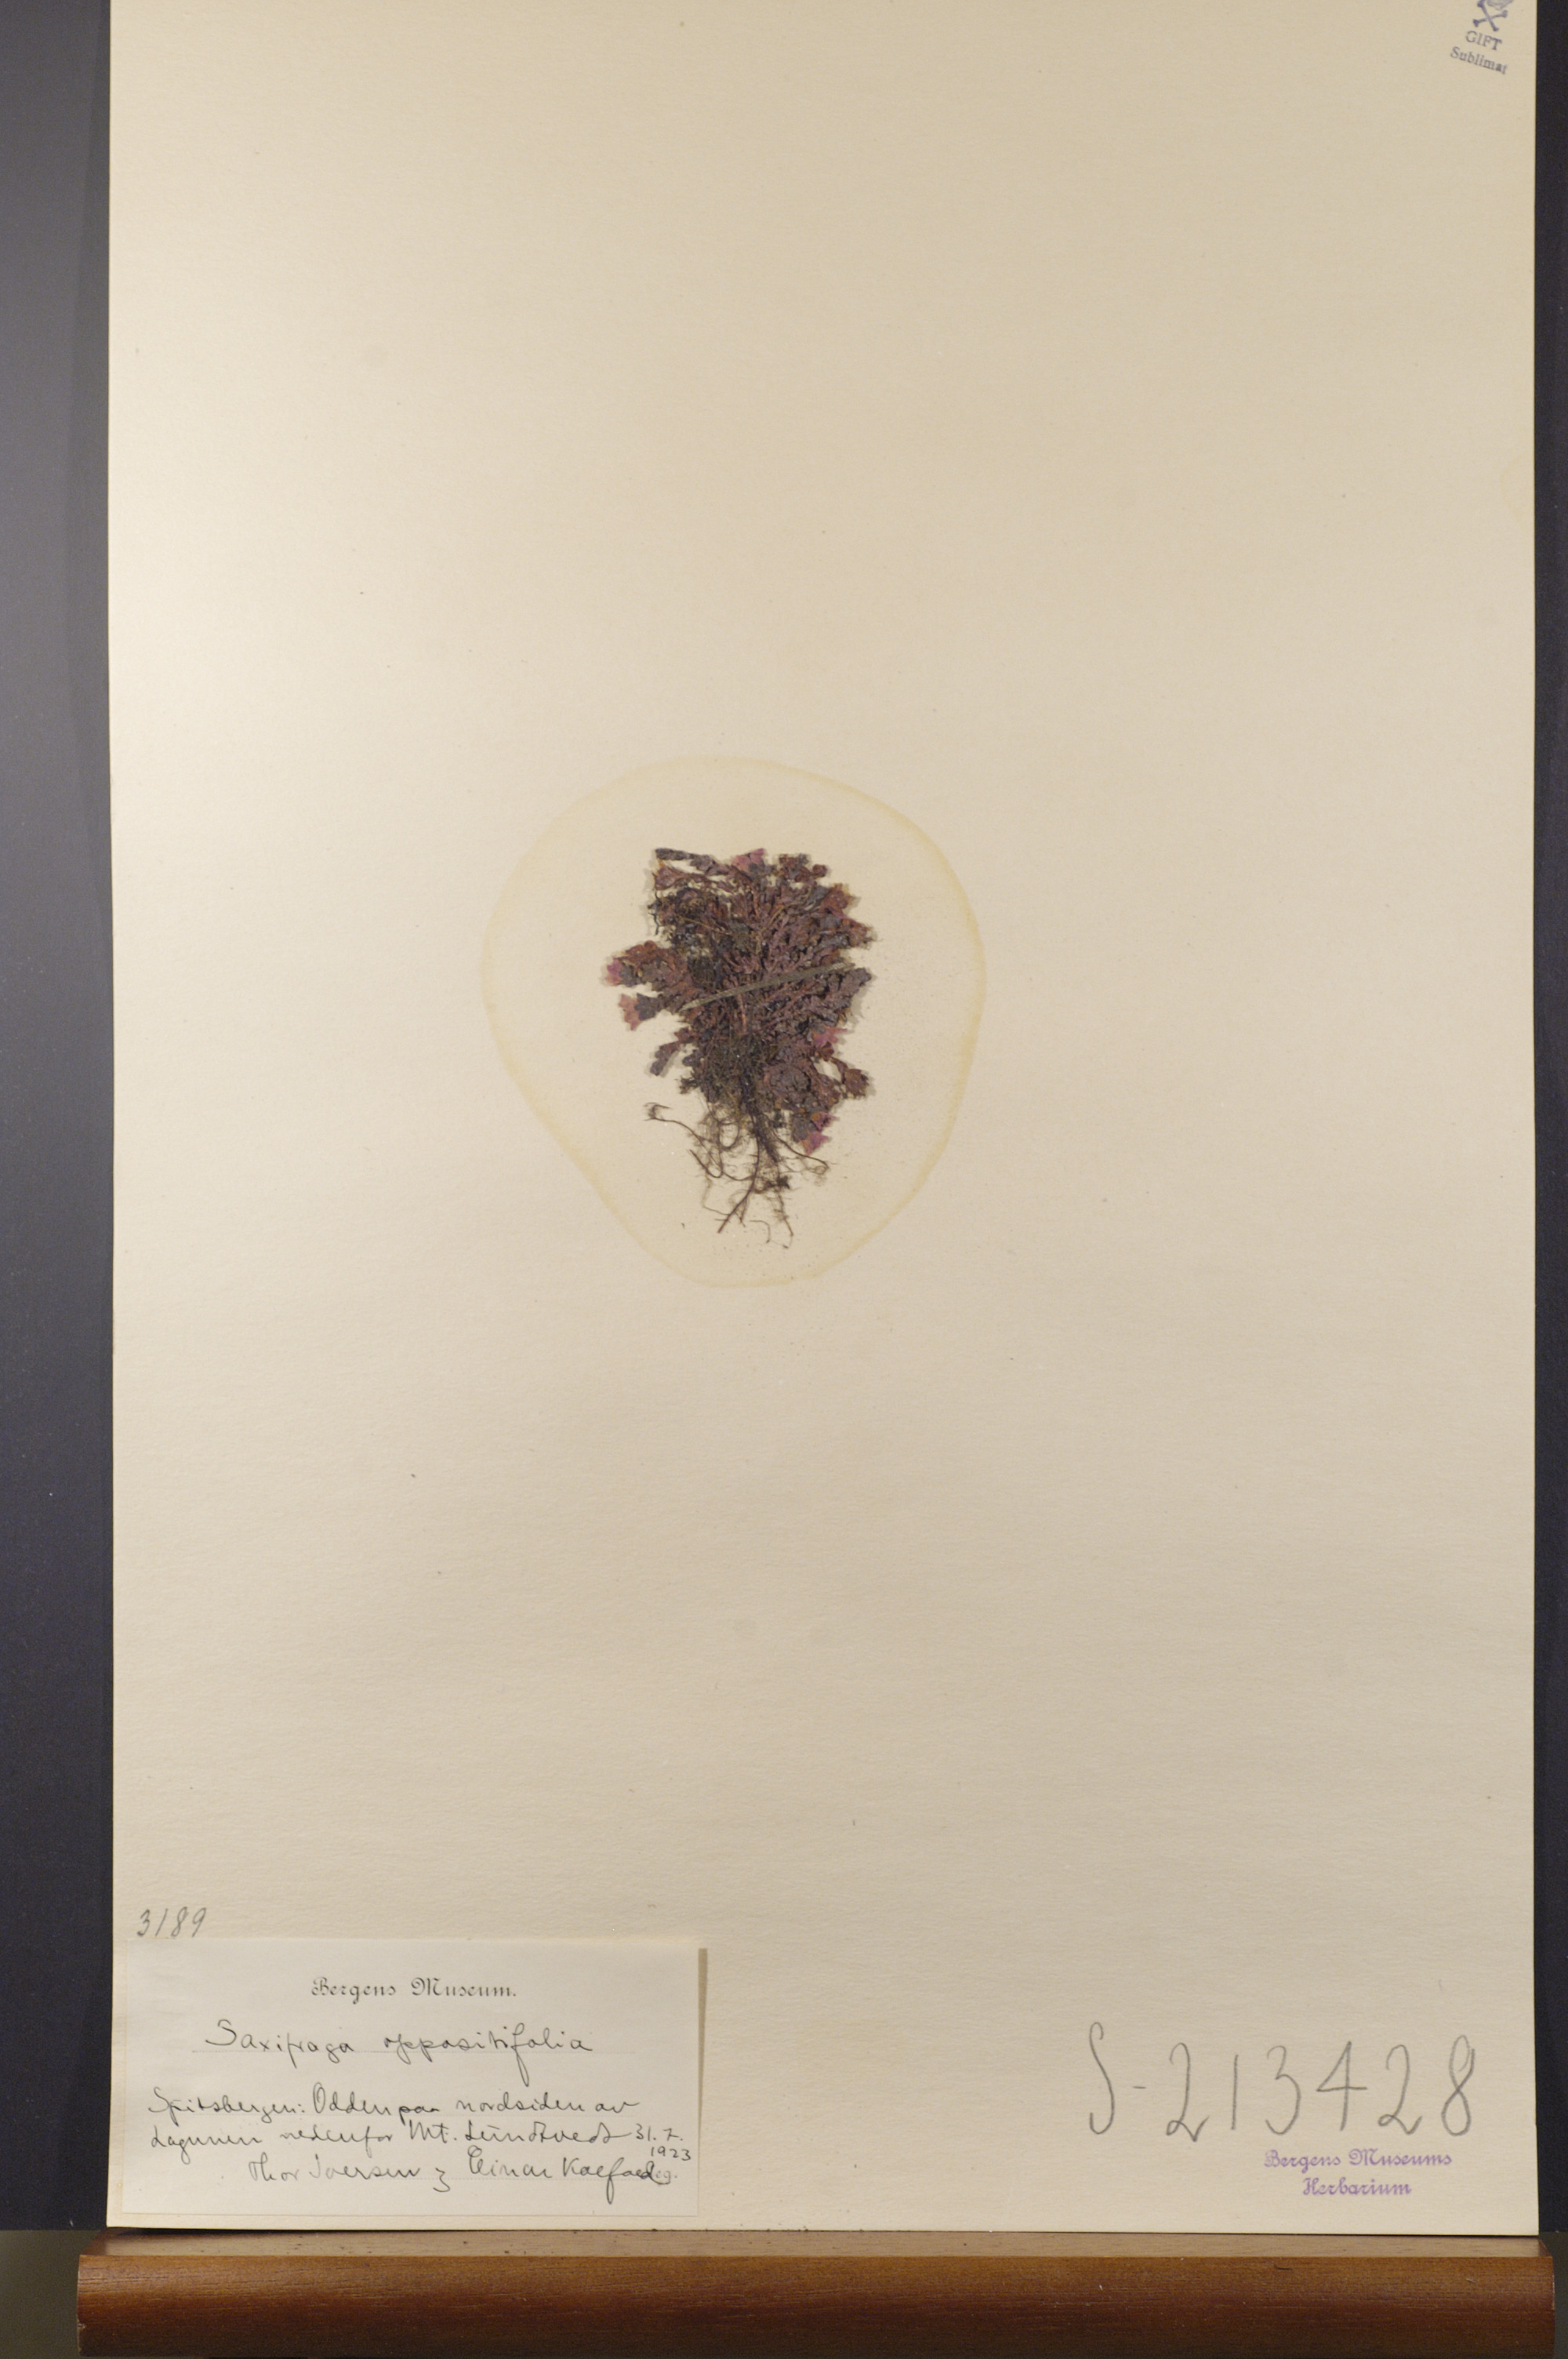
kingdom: Plantae
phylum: Tracheophyta
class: Magnoliopsida
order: Saxifragales
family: Saxifragaceae
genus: Saxifraga
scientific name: Saxifraga oppositifolia
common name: Purple saxifrage
